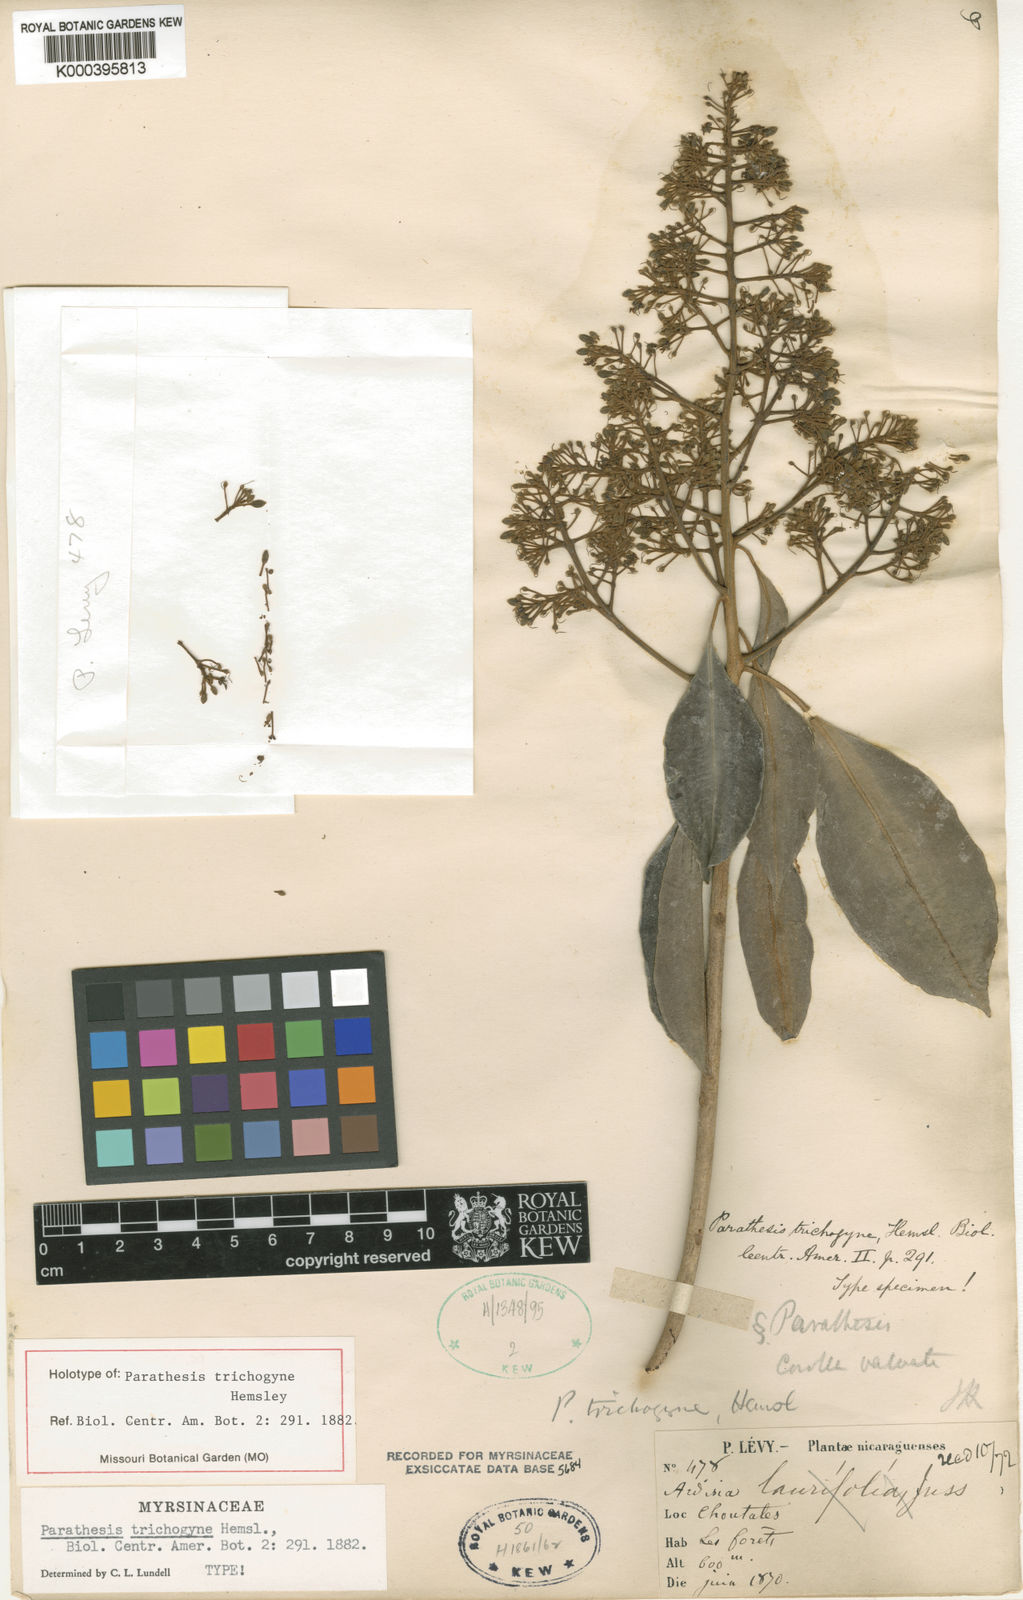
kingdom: Plantae
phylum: Tracheophyta
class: Magnoliopsida
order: Ericales
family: Primulaceae
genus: Parathesis
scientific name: Parathesis trichogyne
